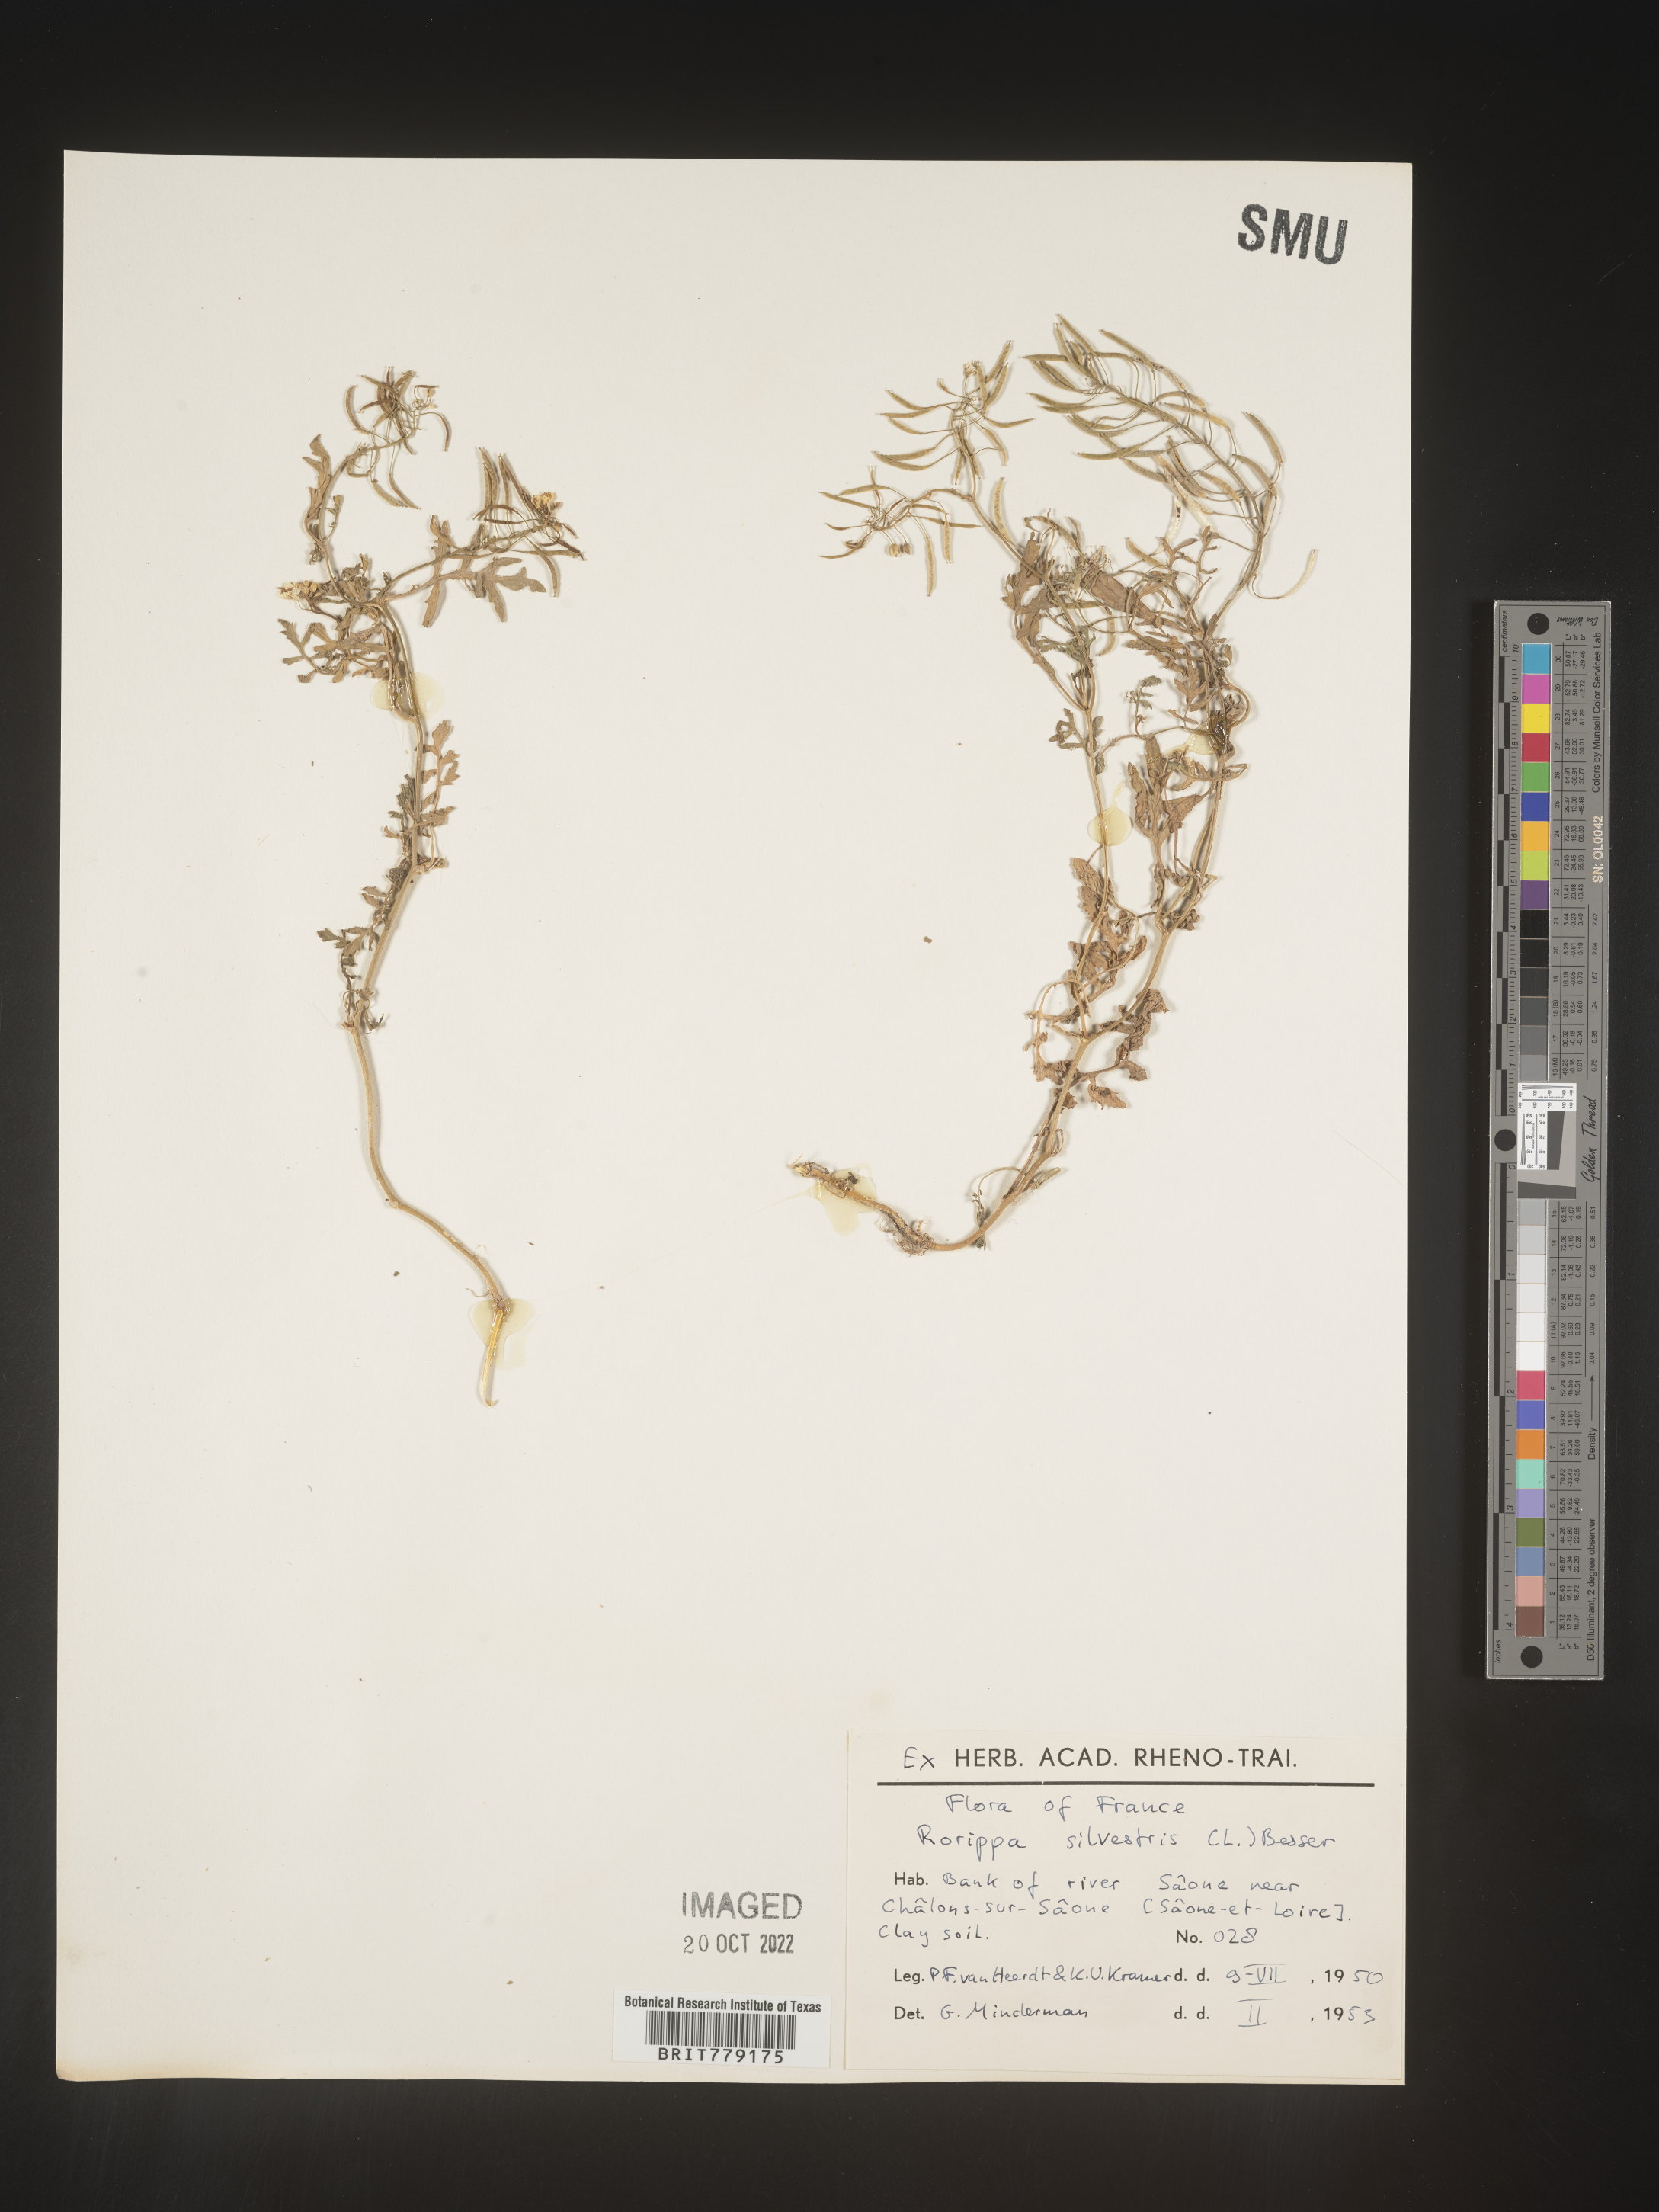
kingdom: Plantae
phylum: Tracheophyta
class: Magnoliopsida
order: Brassicales
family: Brassicaceae
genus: Rorippa
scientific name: Rorippa
